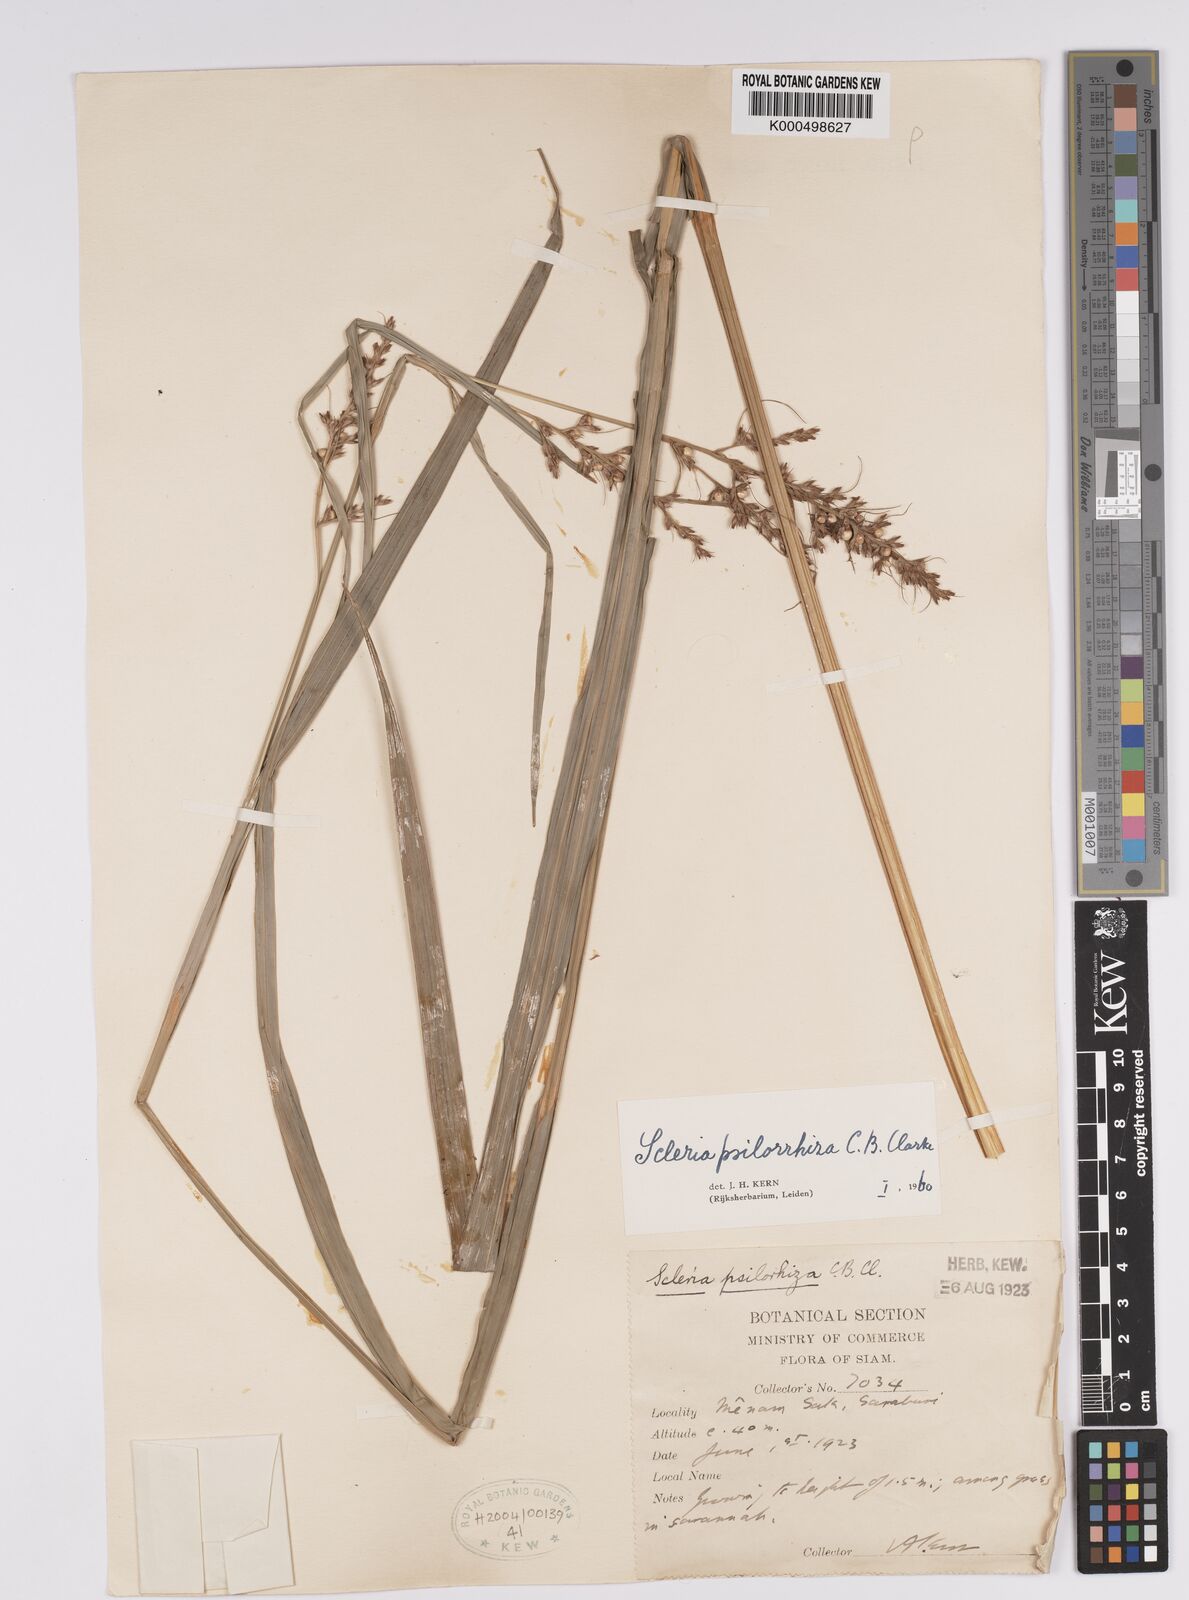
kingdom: Plantae
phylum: Tracheophyta
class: Liliopsida
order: Poales
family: Cyperaceae
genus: Scleria
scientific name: Scleria psilorrhiza
